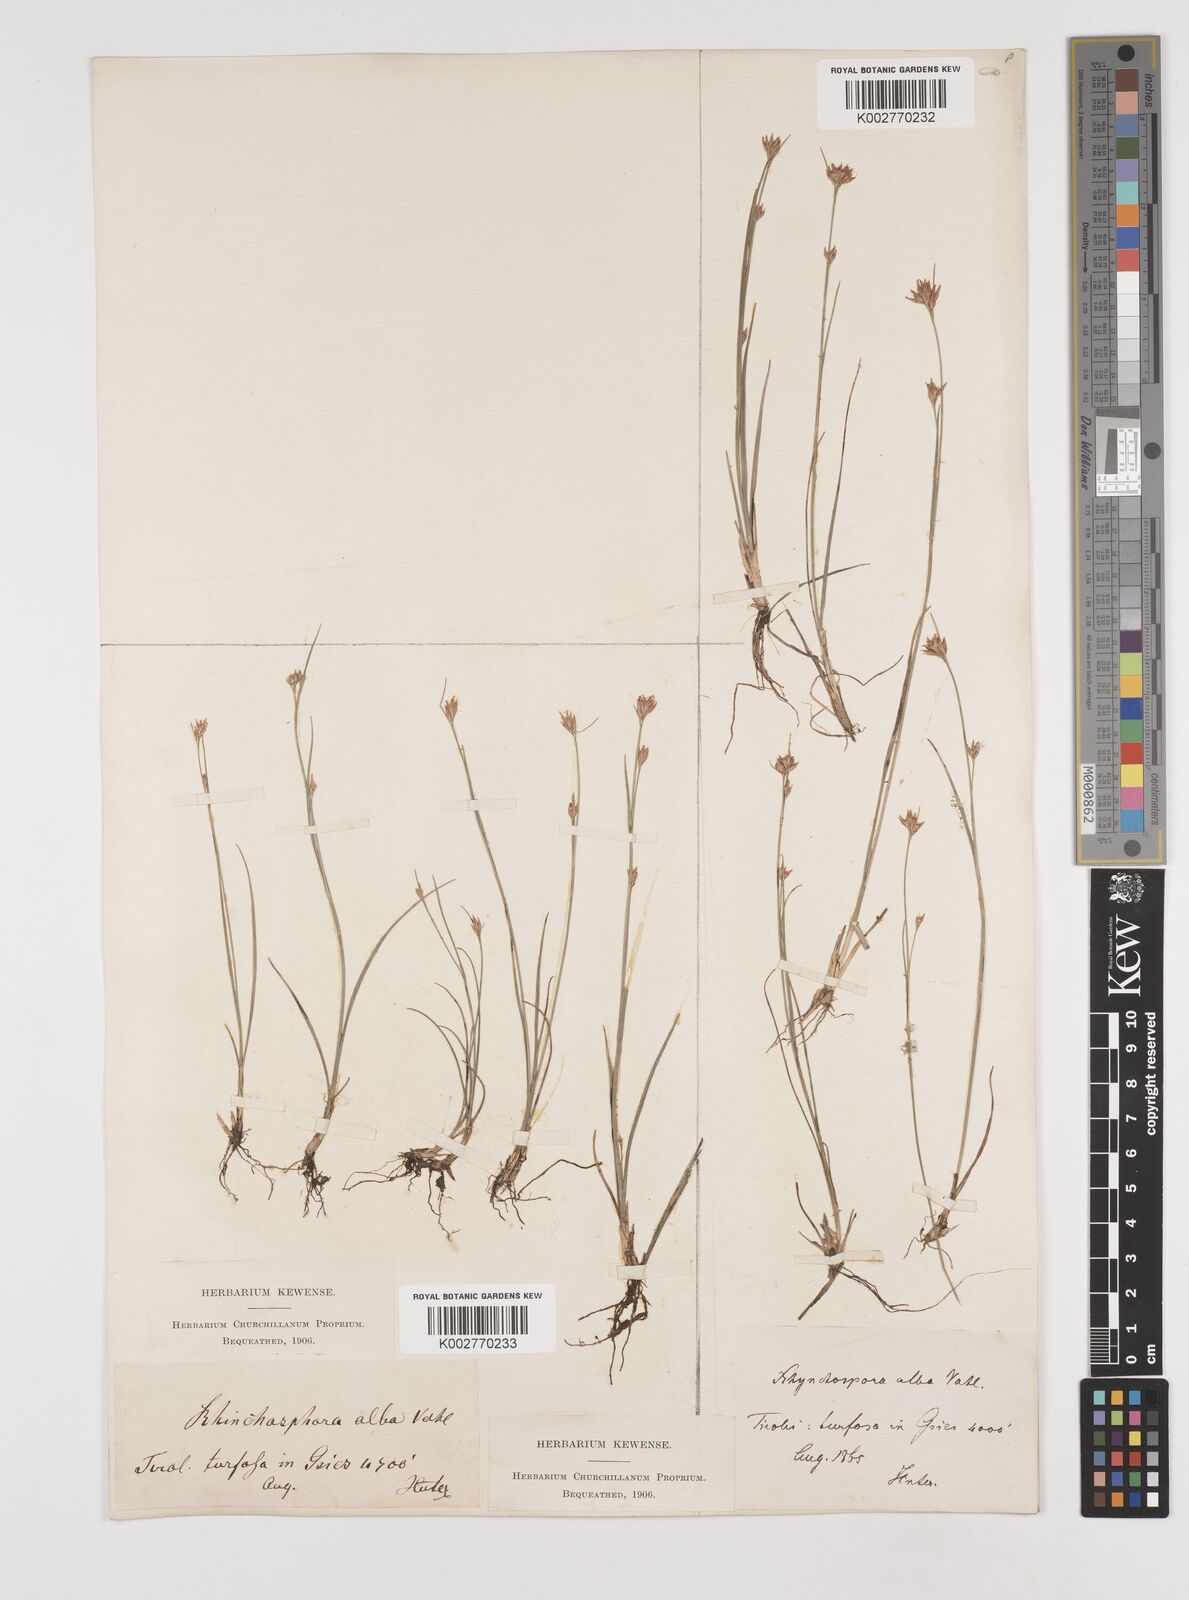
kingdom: Plantae
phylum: Tracheophyta
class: Liliopsida
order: Poales
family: Cyperaceae
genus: Rhynchospora
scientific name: Rhynchospora alba
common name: White beak-sedge
